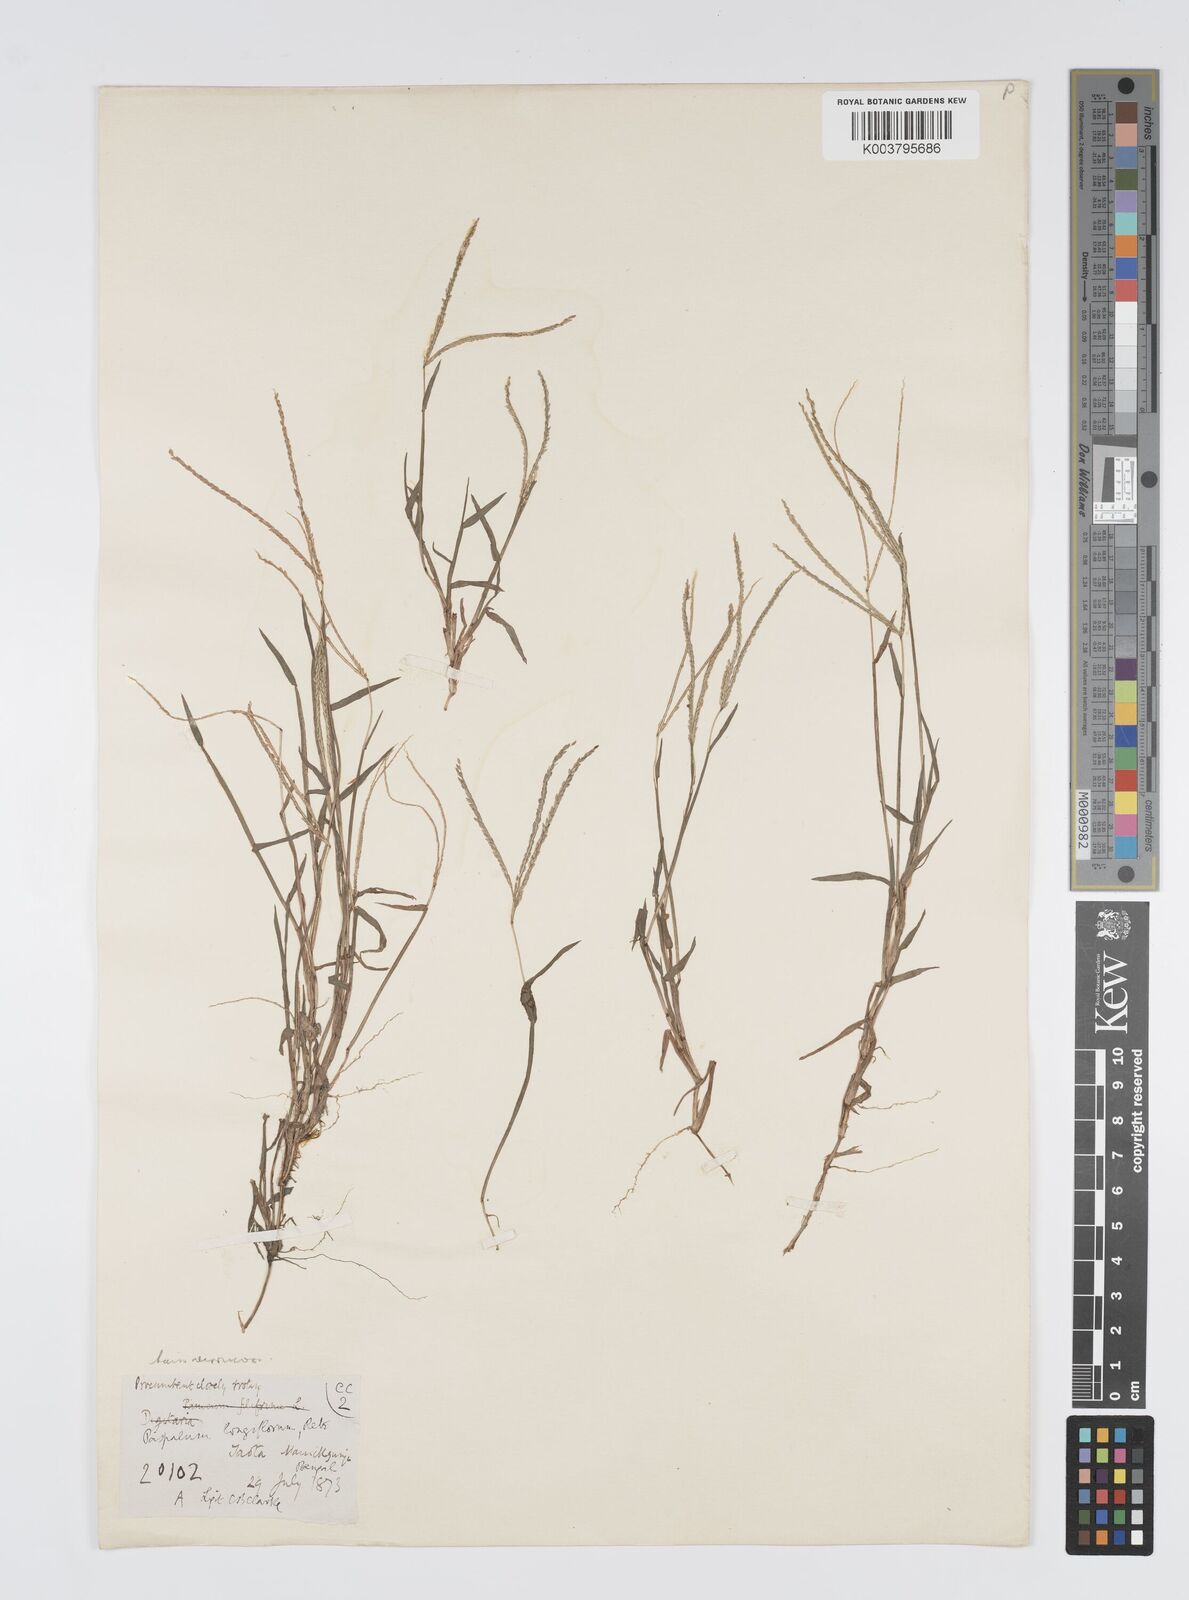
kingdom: Plantae
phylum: Tracheophyta
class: Liliopsida
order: Poales
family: Poaceae
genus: Digitaria
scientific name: Digitaria longiflora
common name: Wire crabgrass
